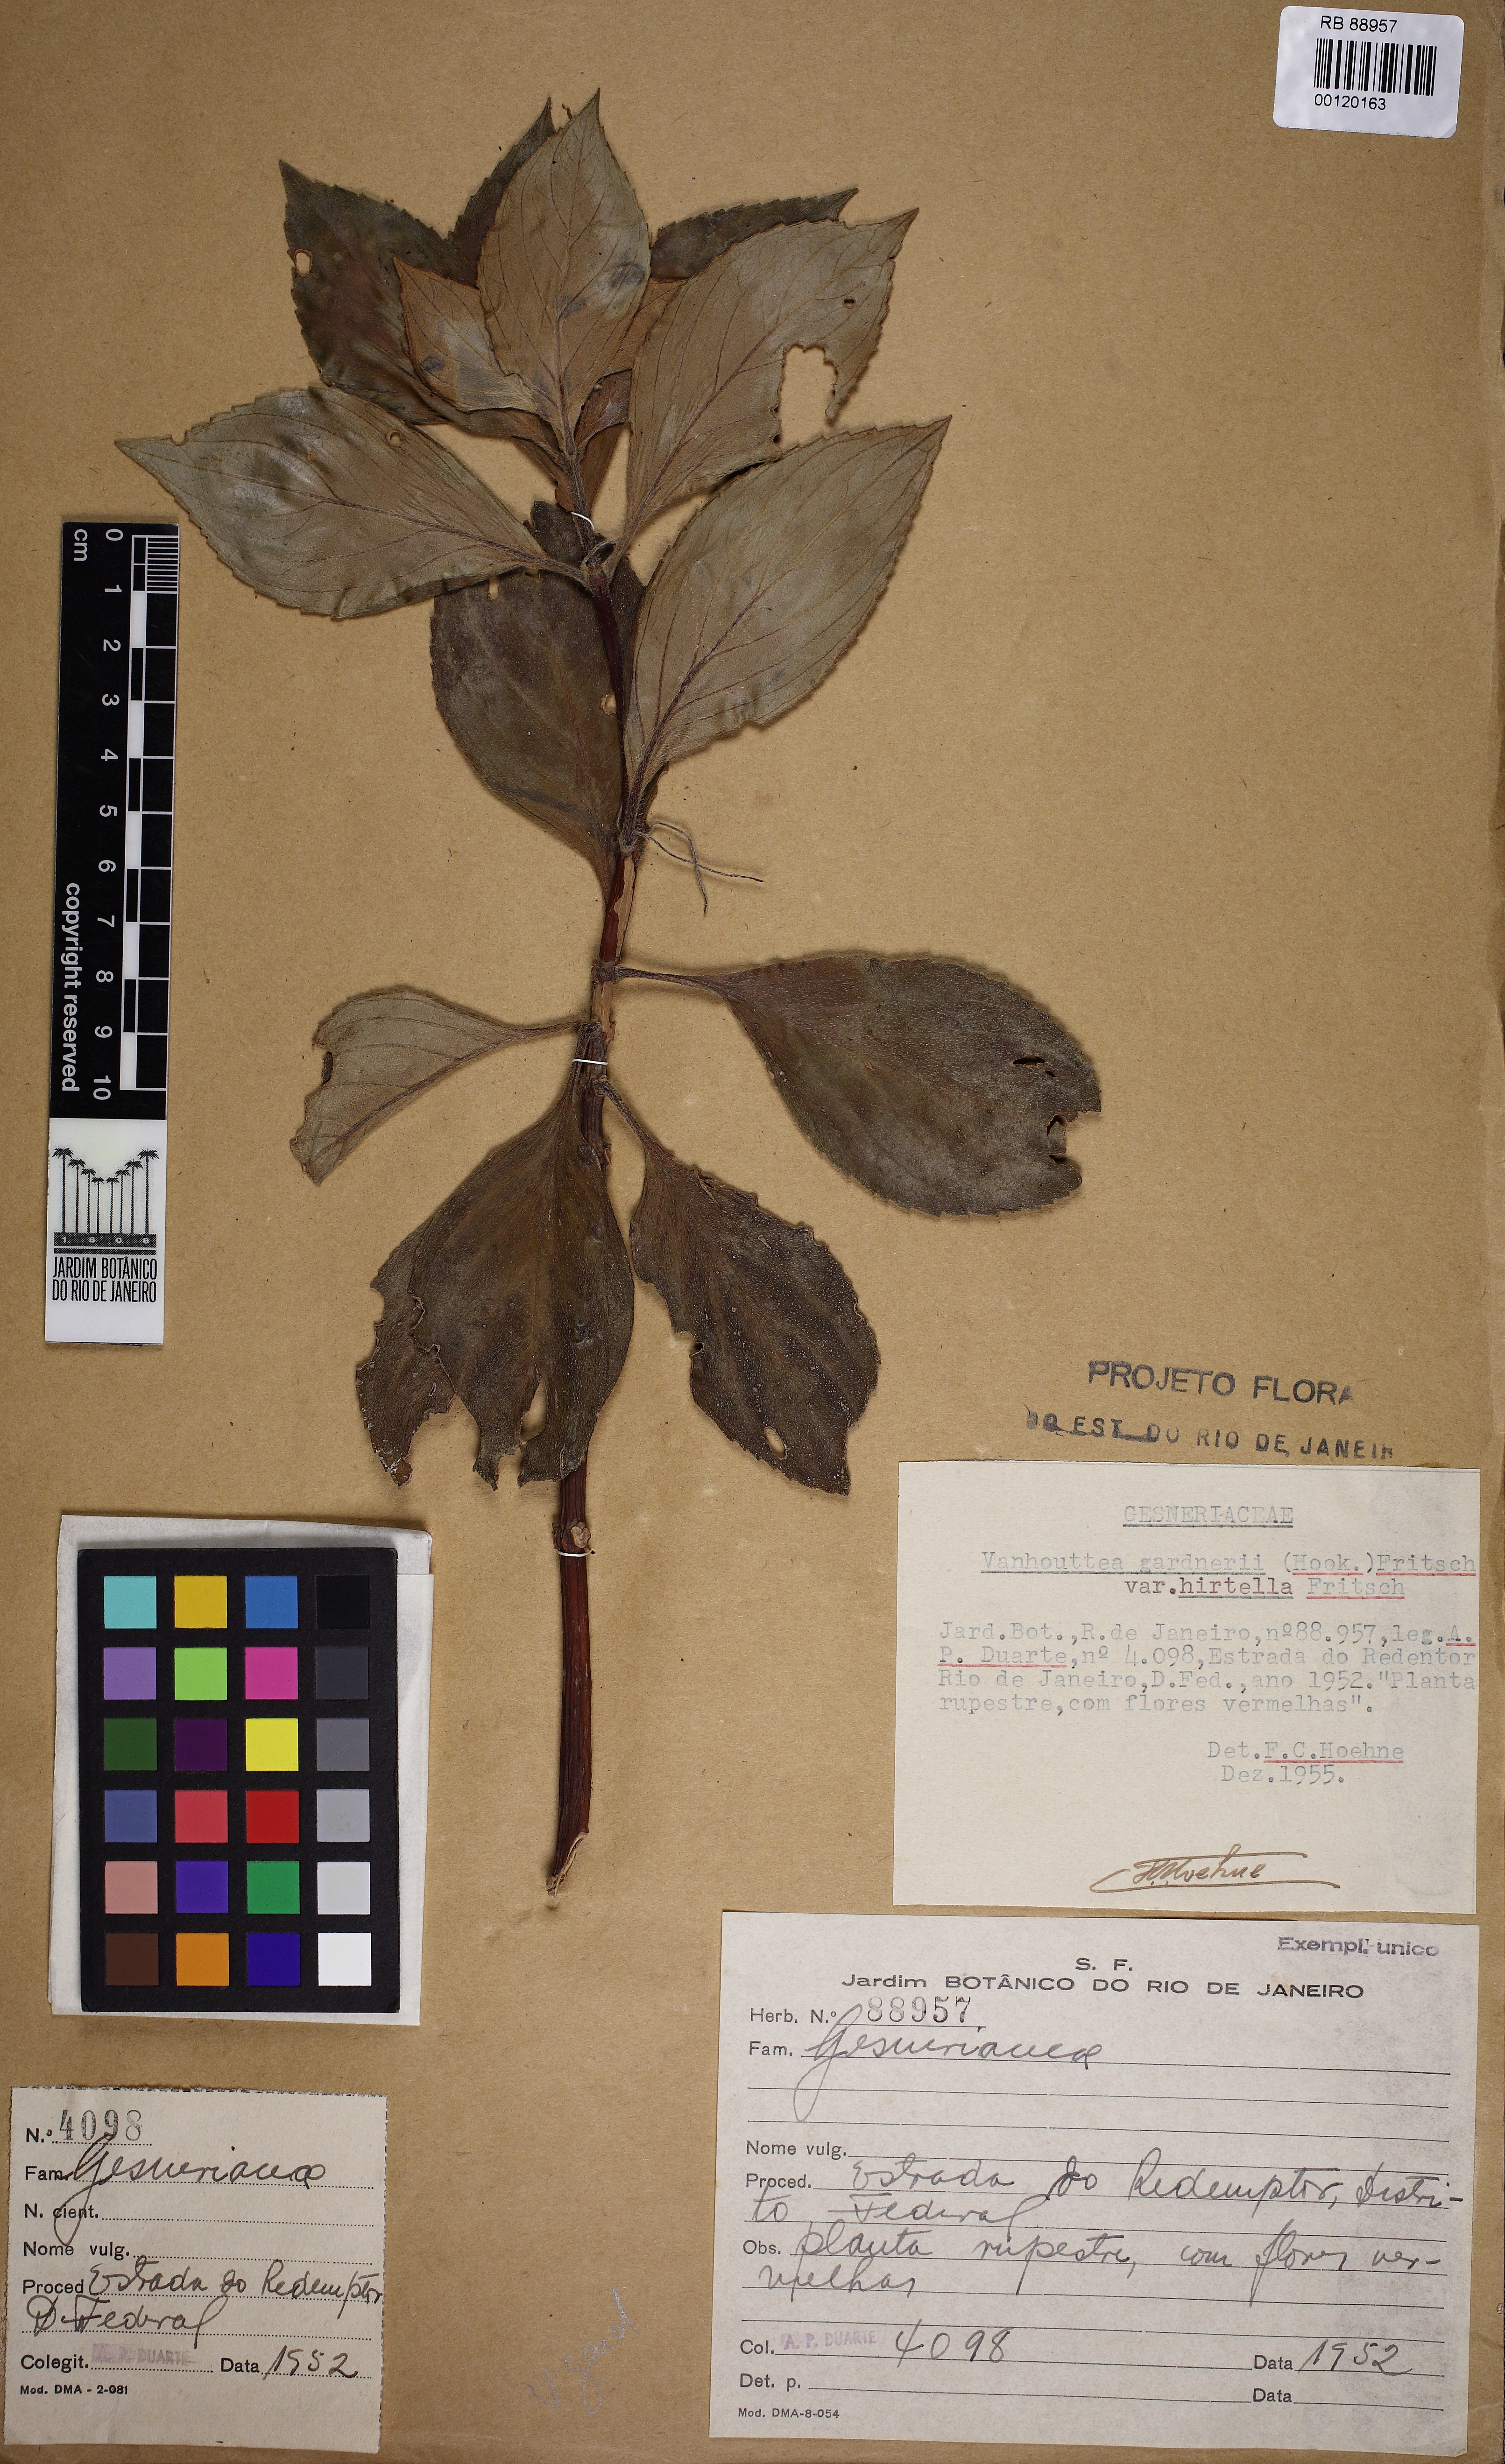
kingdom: Plantae
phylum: Tracheophyta
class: Magnoliopsida
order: Lamiales
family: Gesneriaceae
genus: Vanhouttea
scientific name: Vanhouttea gardneri
